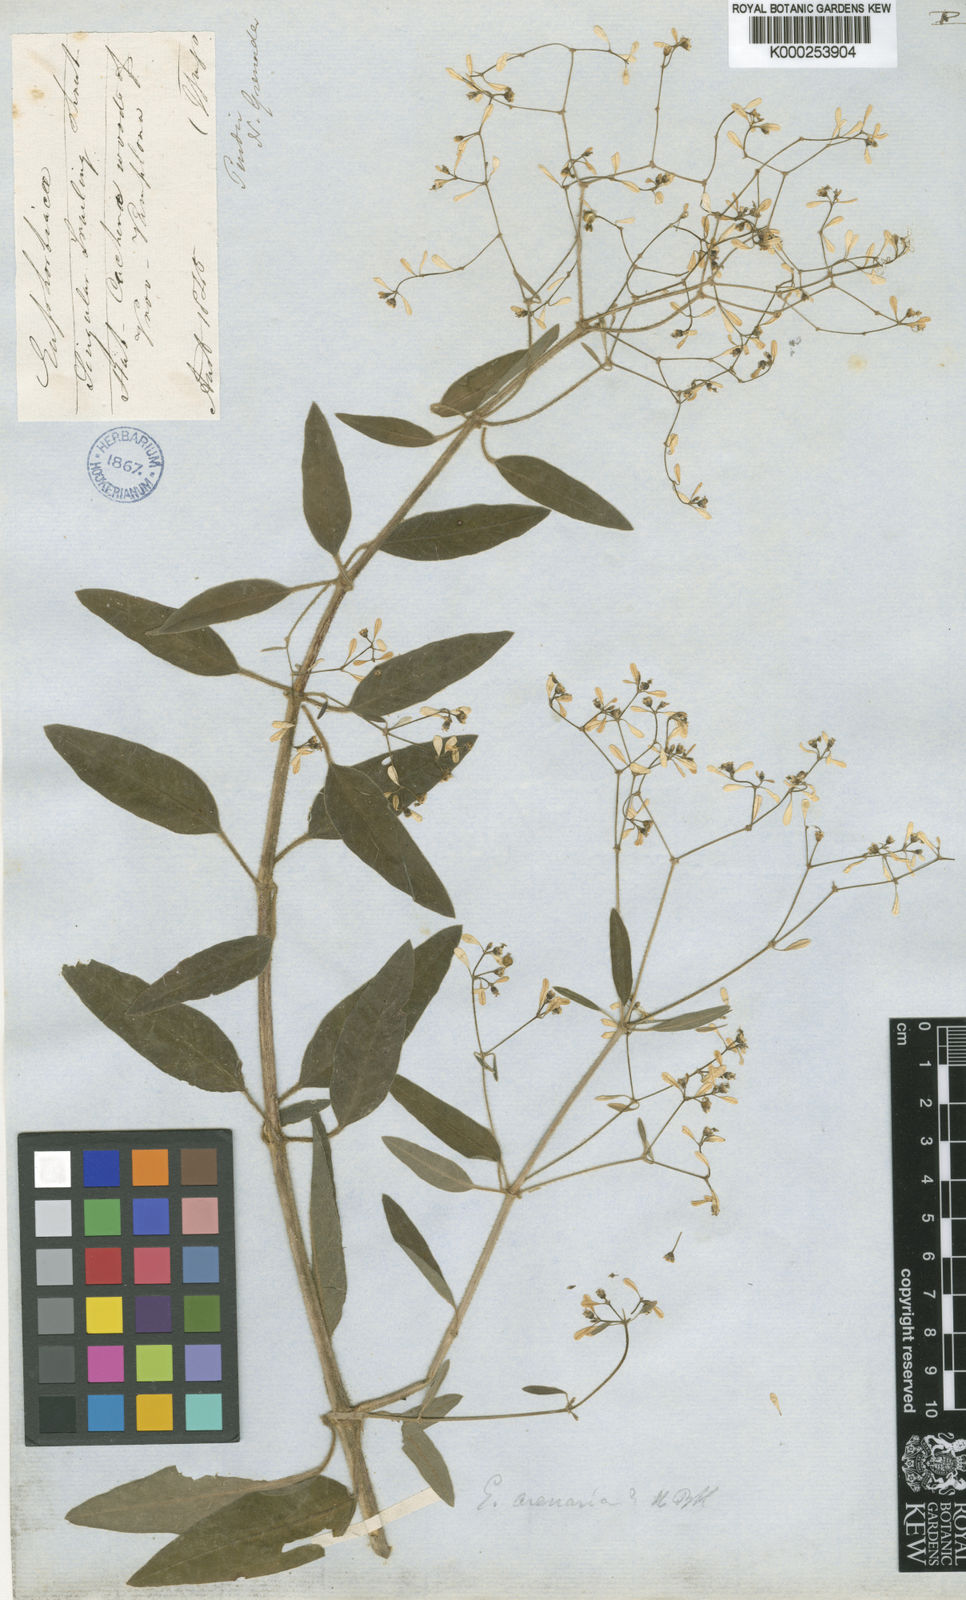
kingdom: Plantae
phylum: Tracheophyta
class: Magnoliopsida
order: Malpighiales
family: Euphorbiaceae
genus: Euphorbia
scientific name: Euphorbia arenaria
